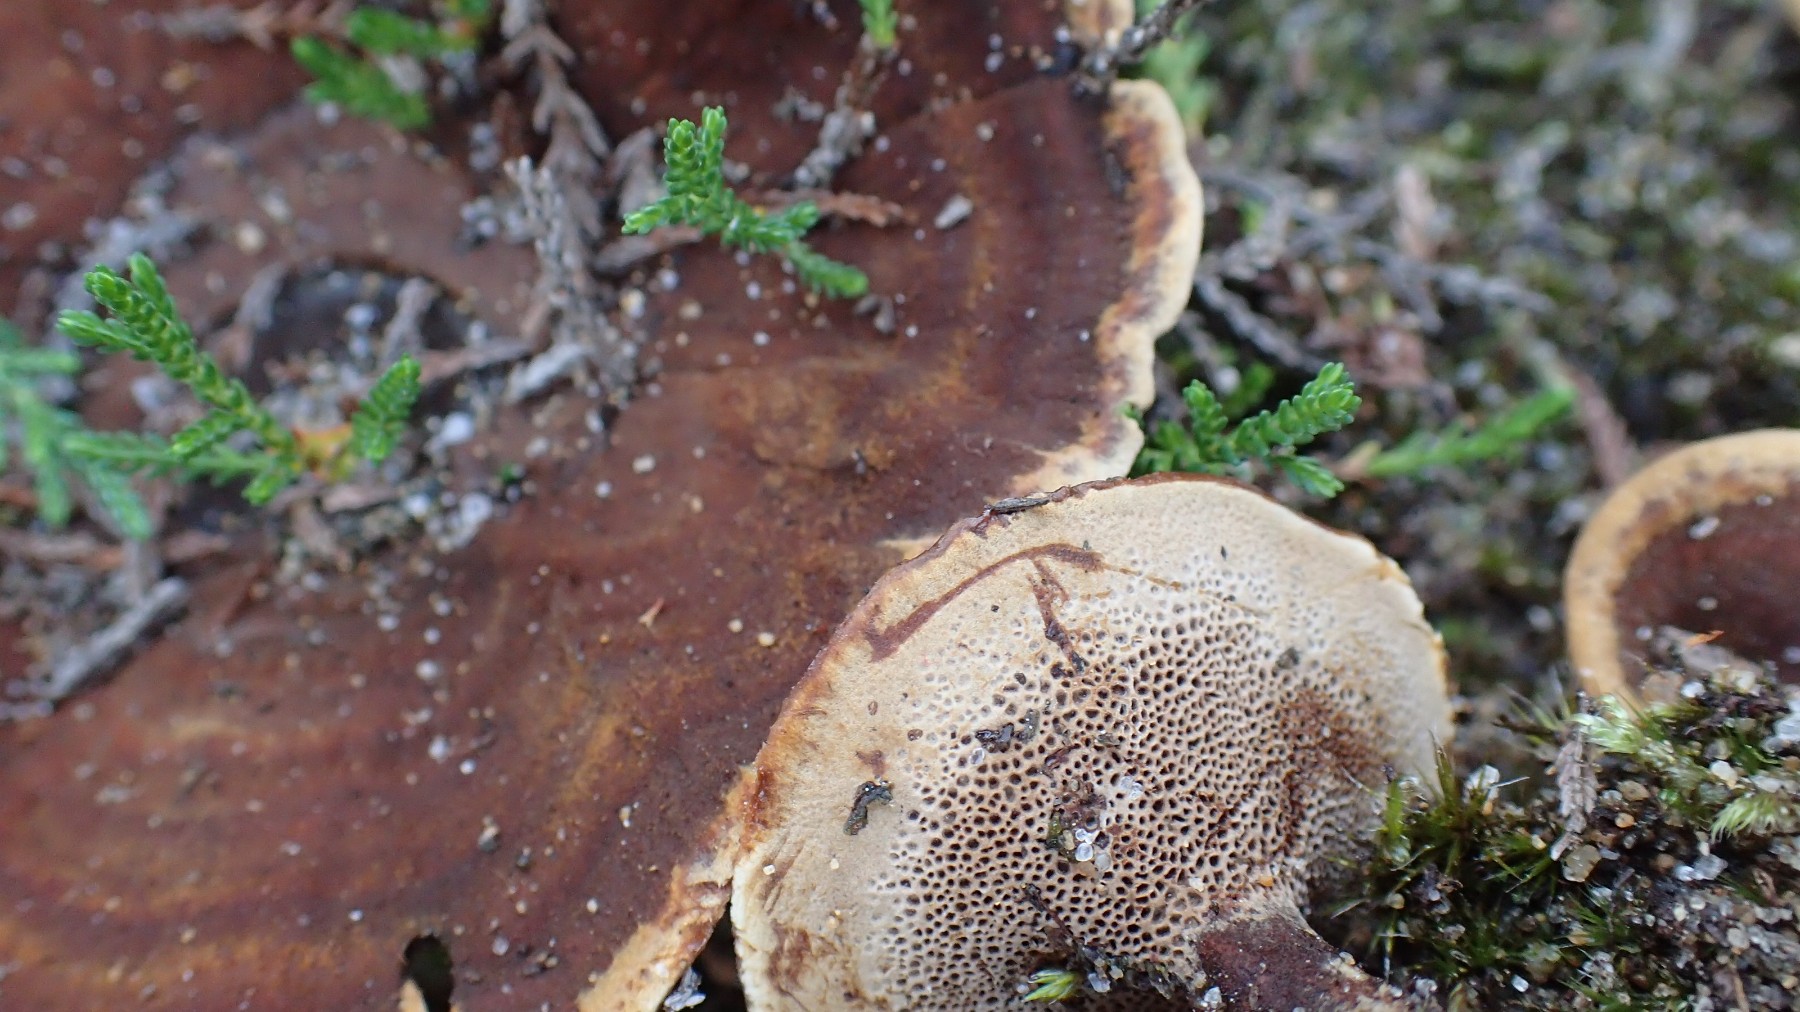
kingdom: Fungi
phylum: Basidiomycota
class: Agaricomycetes
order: Hymenochaetales
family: Hymenochaetaceae
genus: Coltricia
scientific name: Coltricia perennis
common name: almindelig sandporesvamp
